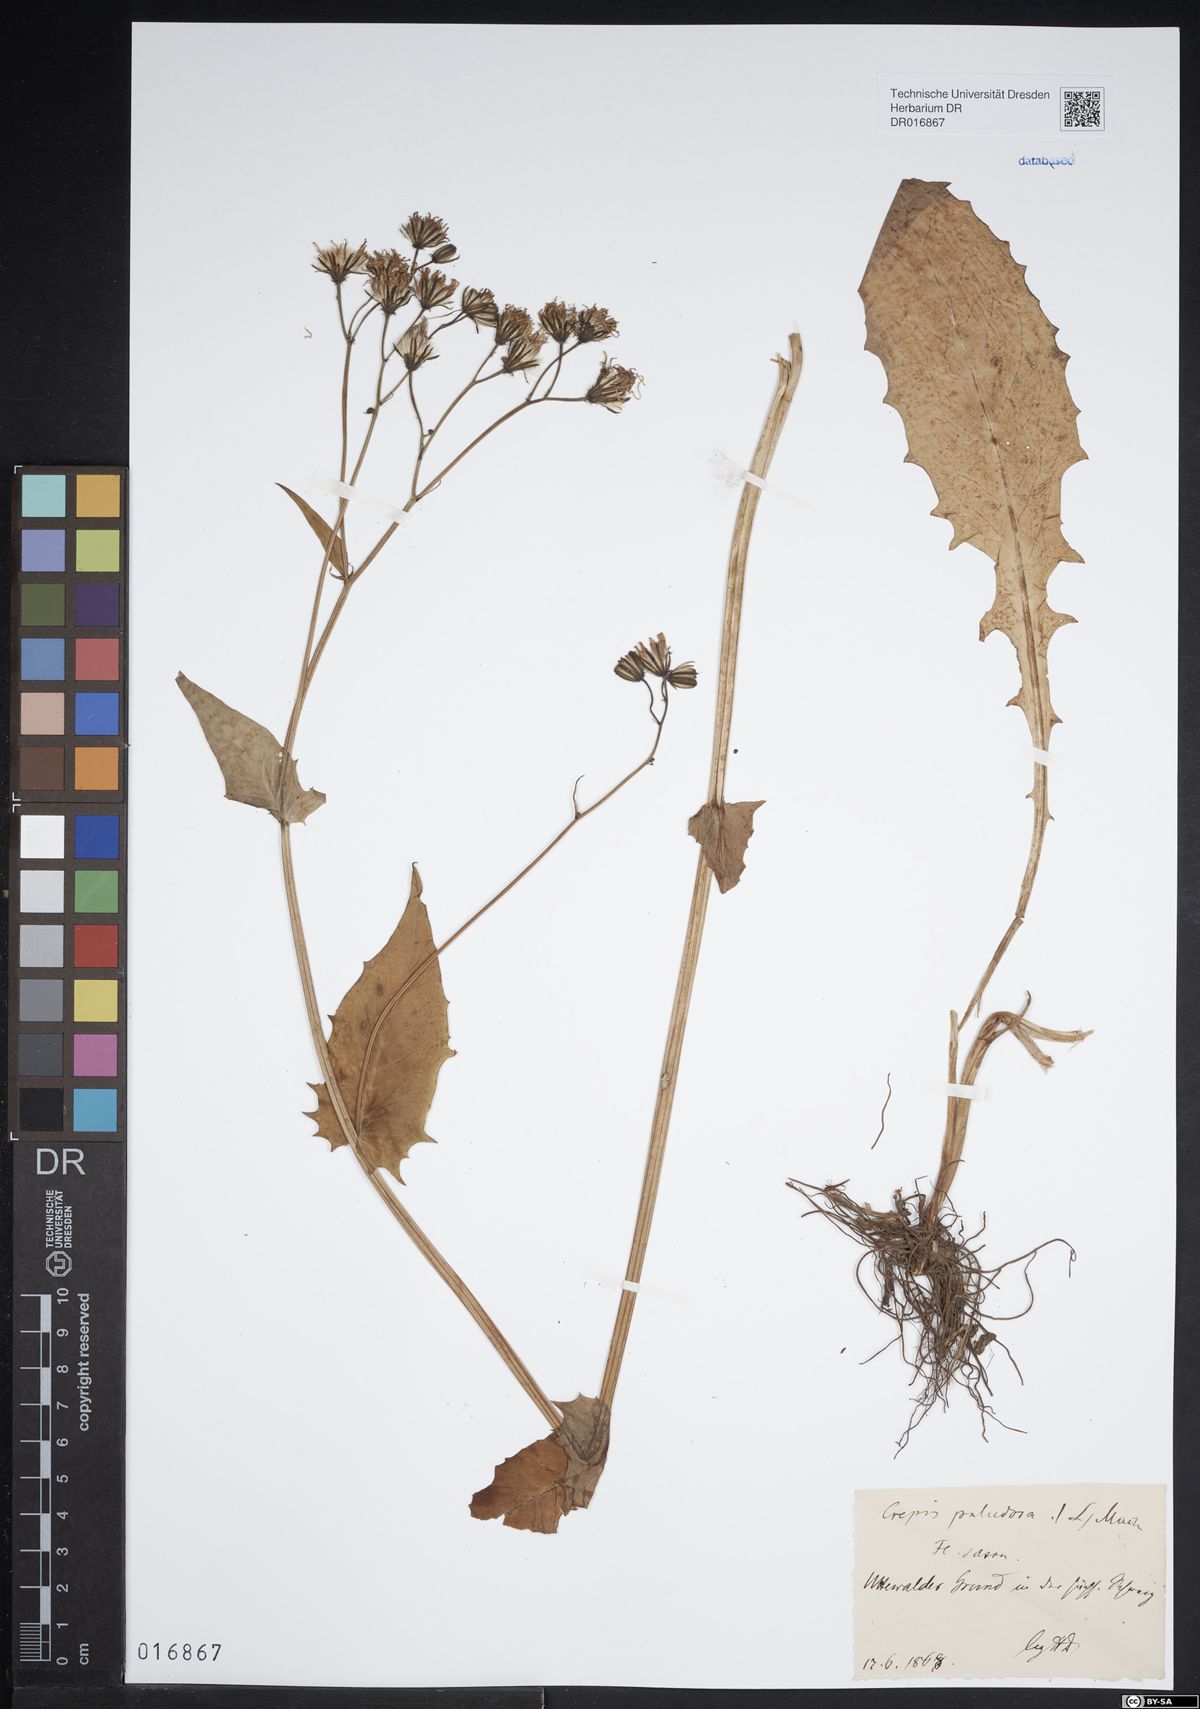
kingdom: Plantae
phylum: Tracheophyta
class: Magnoliopsida
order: Asterales
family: Asteraceae
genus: Crepis
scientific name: Crepis paludosa
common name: Marsh hawk's-beard
